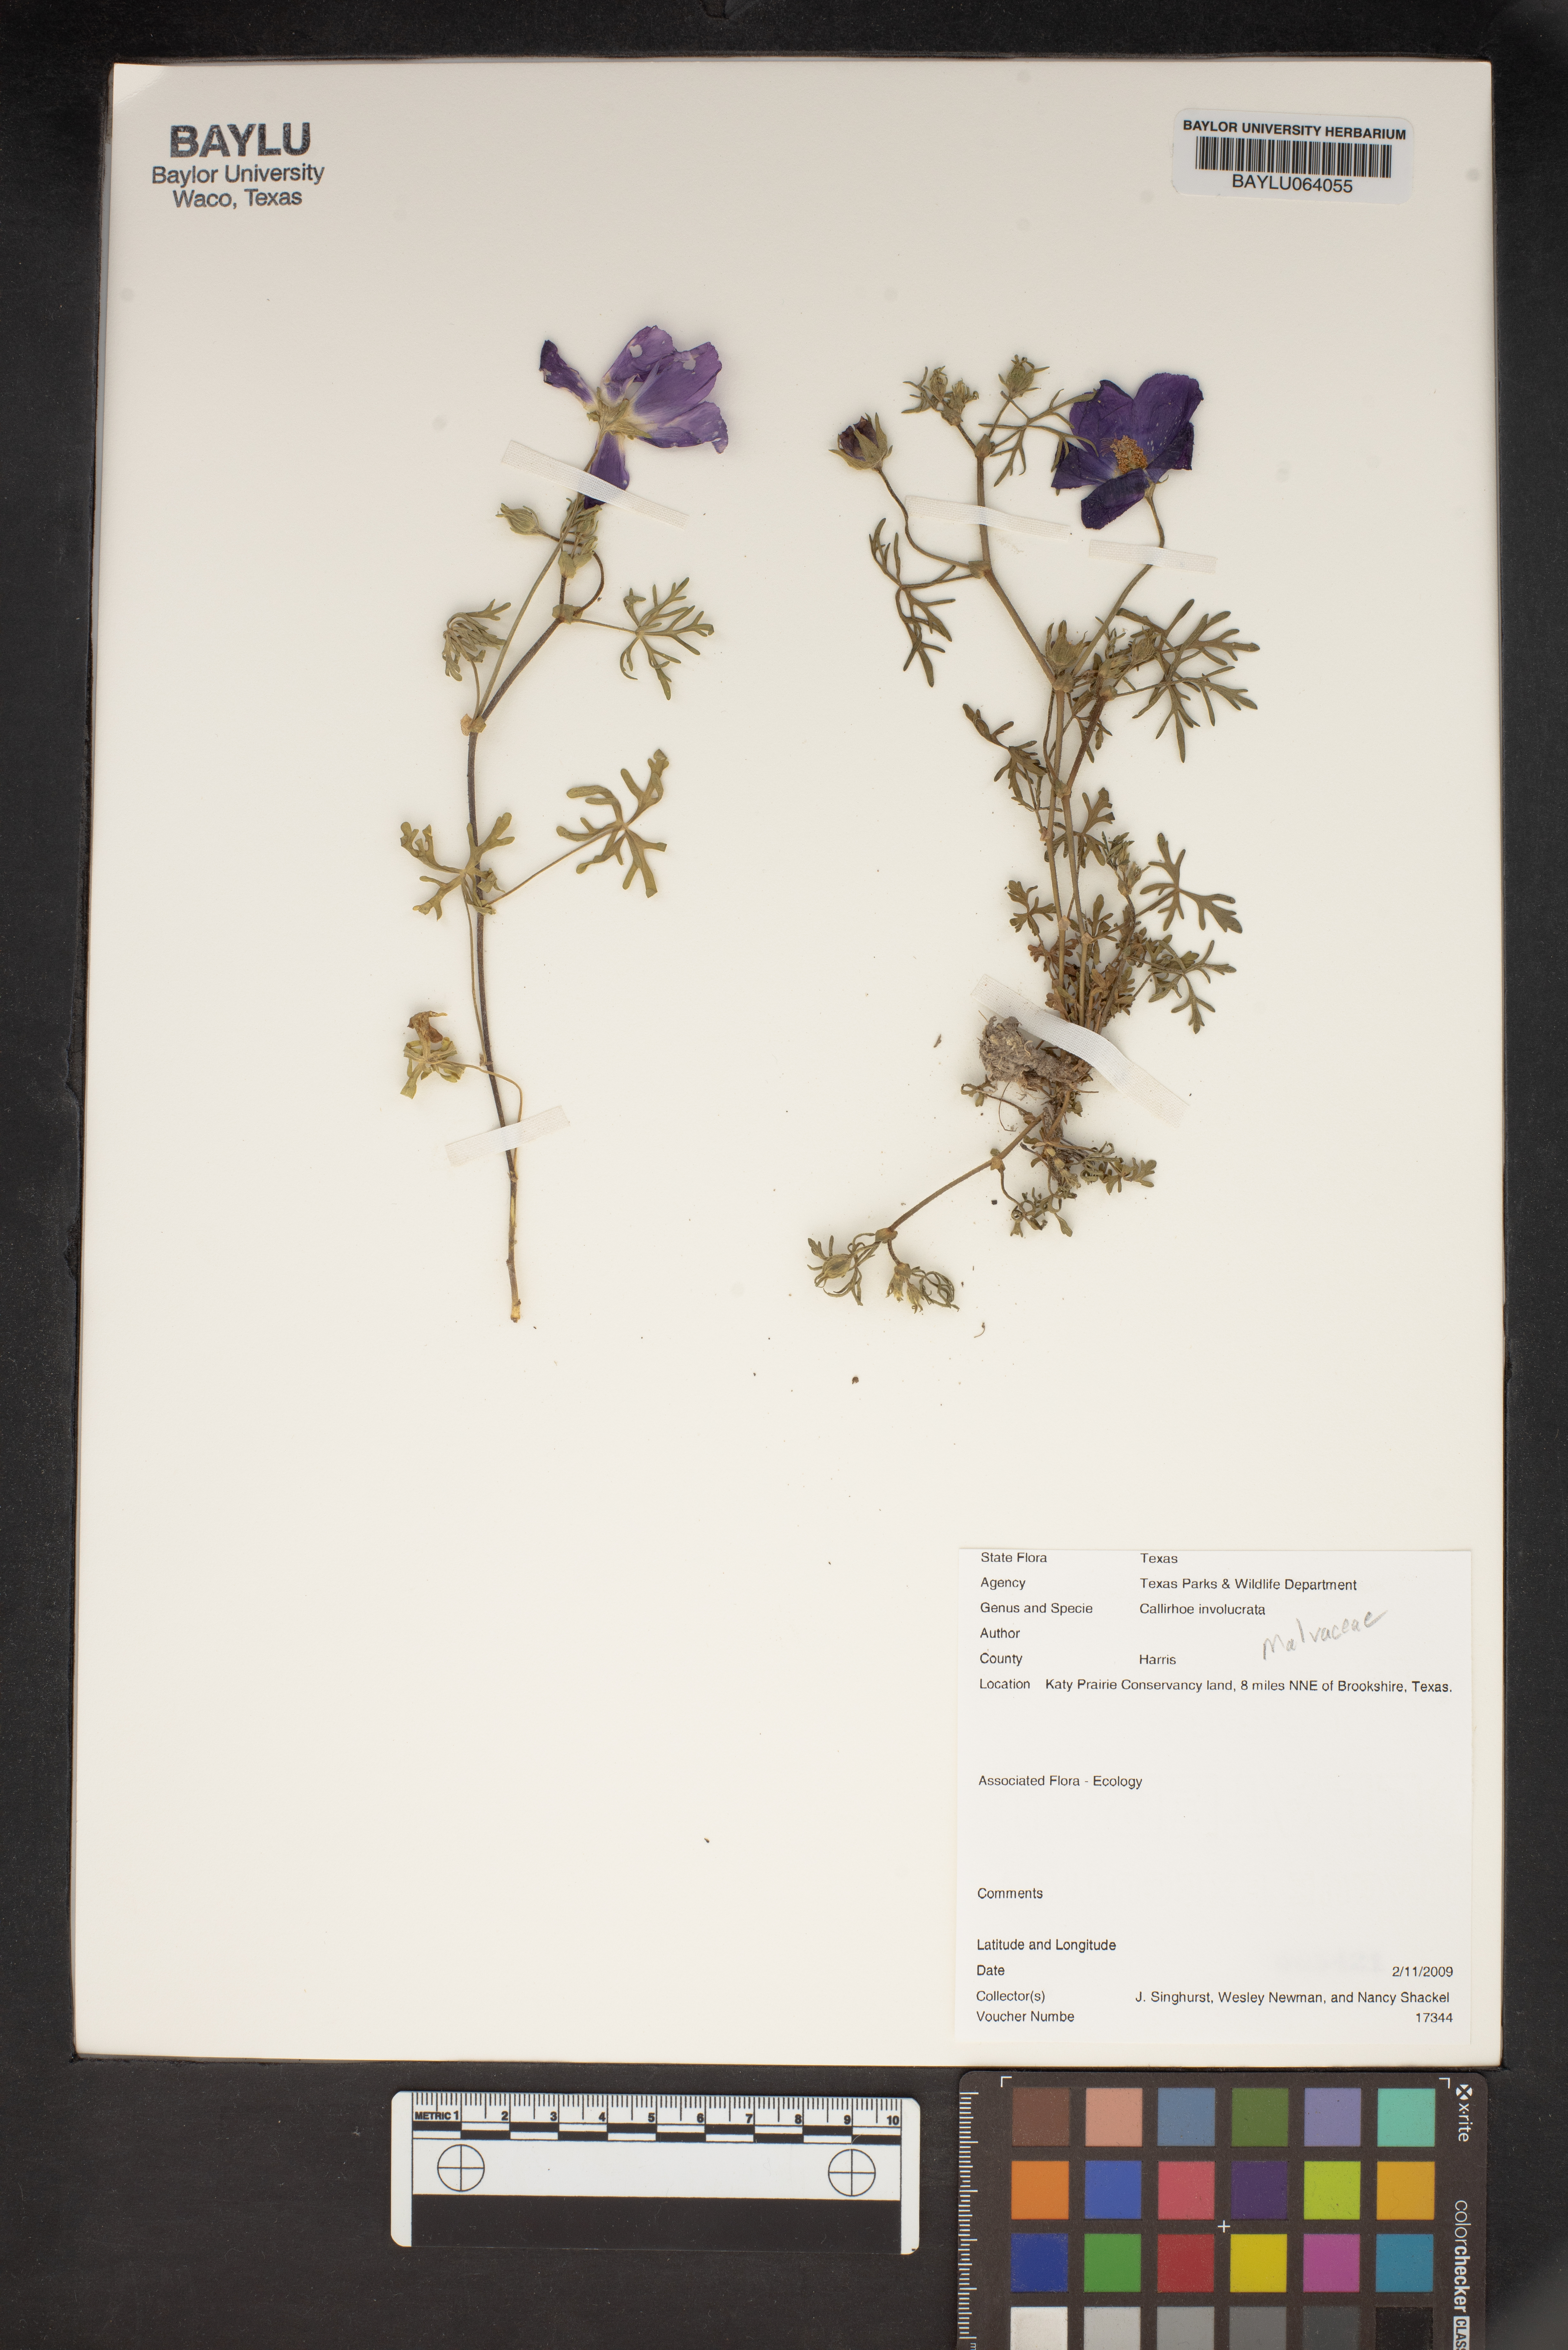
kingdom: Plantae
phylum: Tracheophyta
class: Magnoliopsida
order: Malvales
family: Malvaceae
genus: Callirhoe
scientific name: Callirhoe involucrata
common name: Purple poppy-mallow
